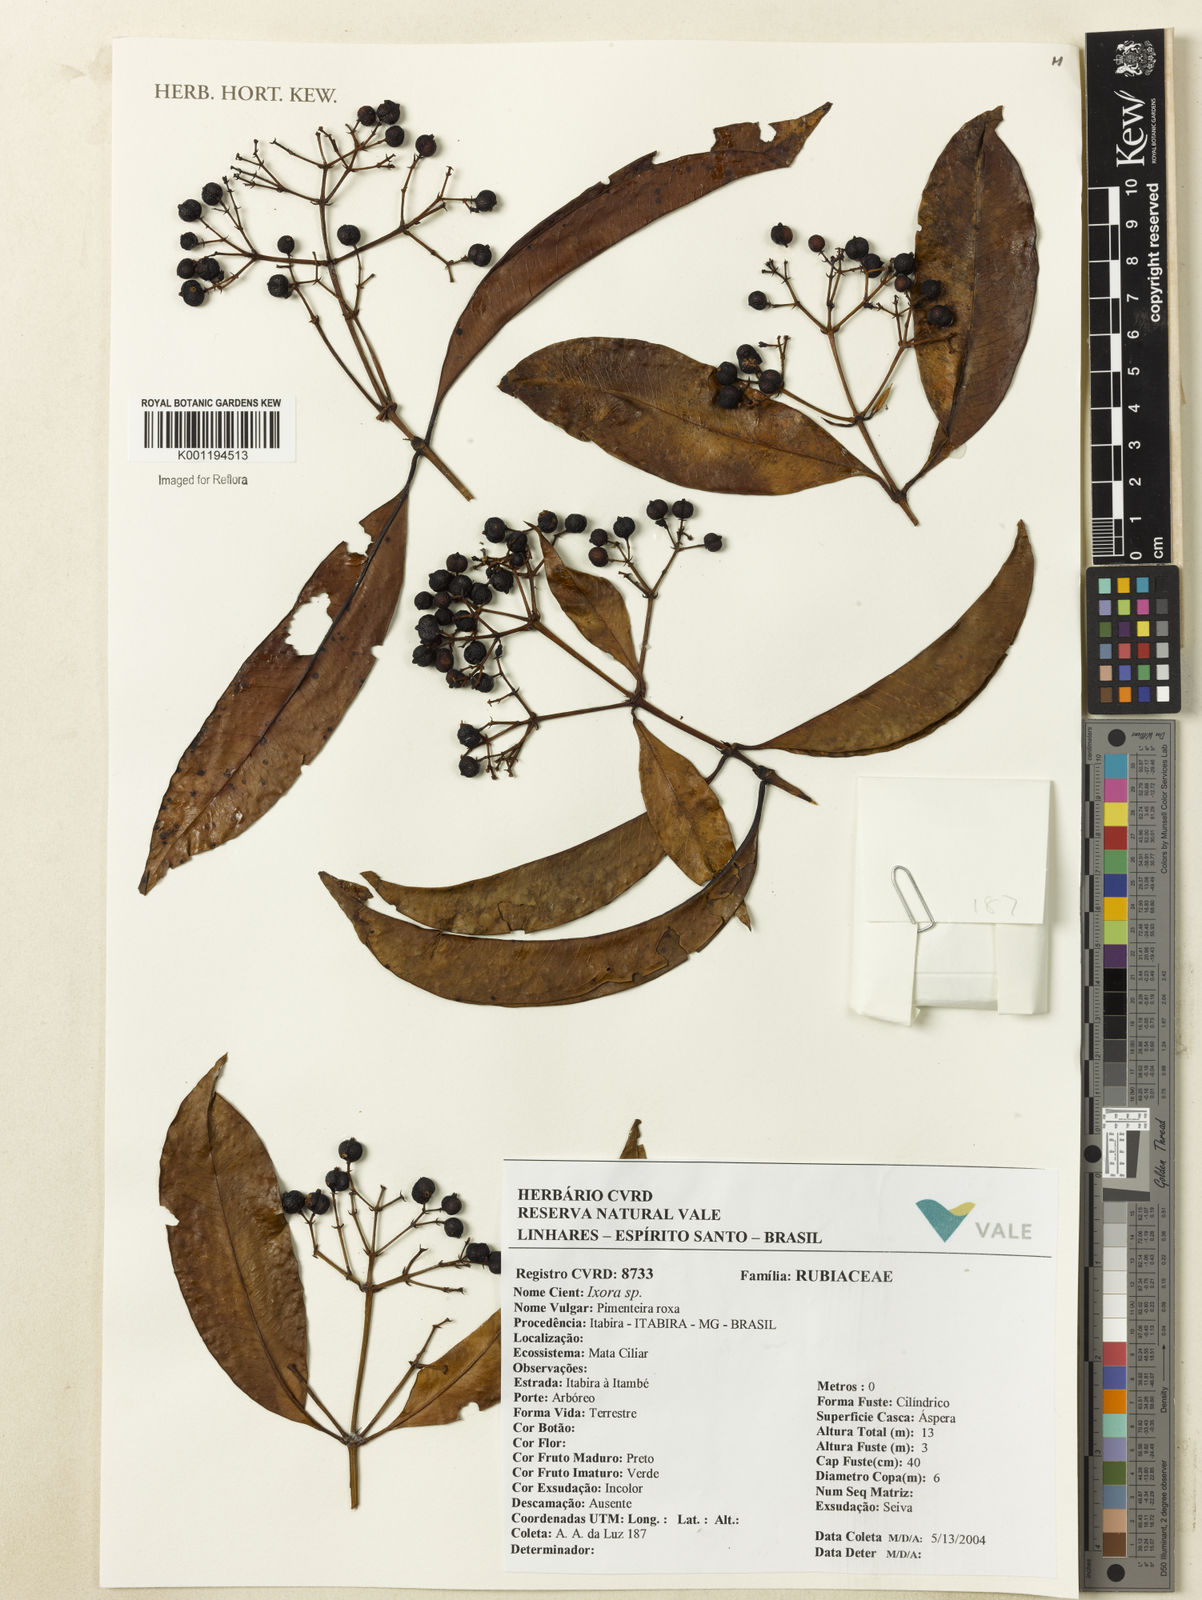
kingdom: Plantae
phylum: Tracheophyta
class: Magnoliopsida
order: Gentianales
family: Rubiaceae
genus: Ixora
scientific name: Ixora
